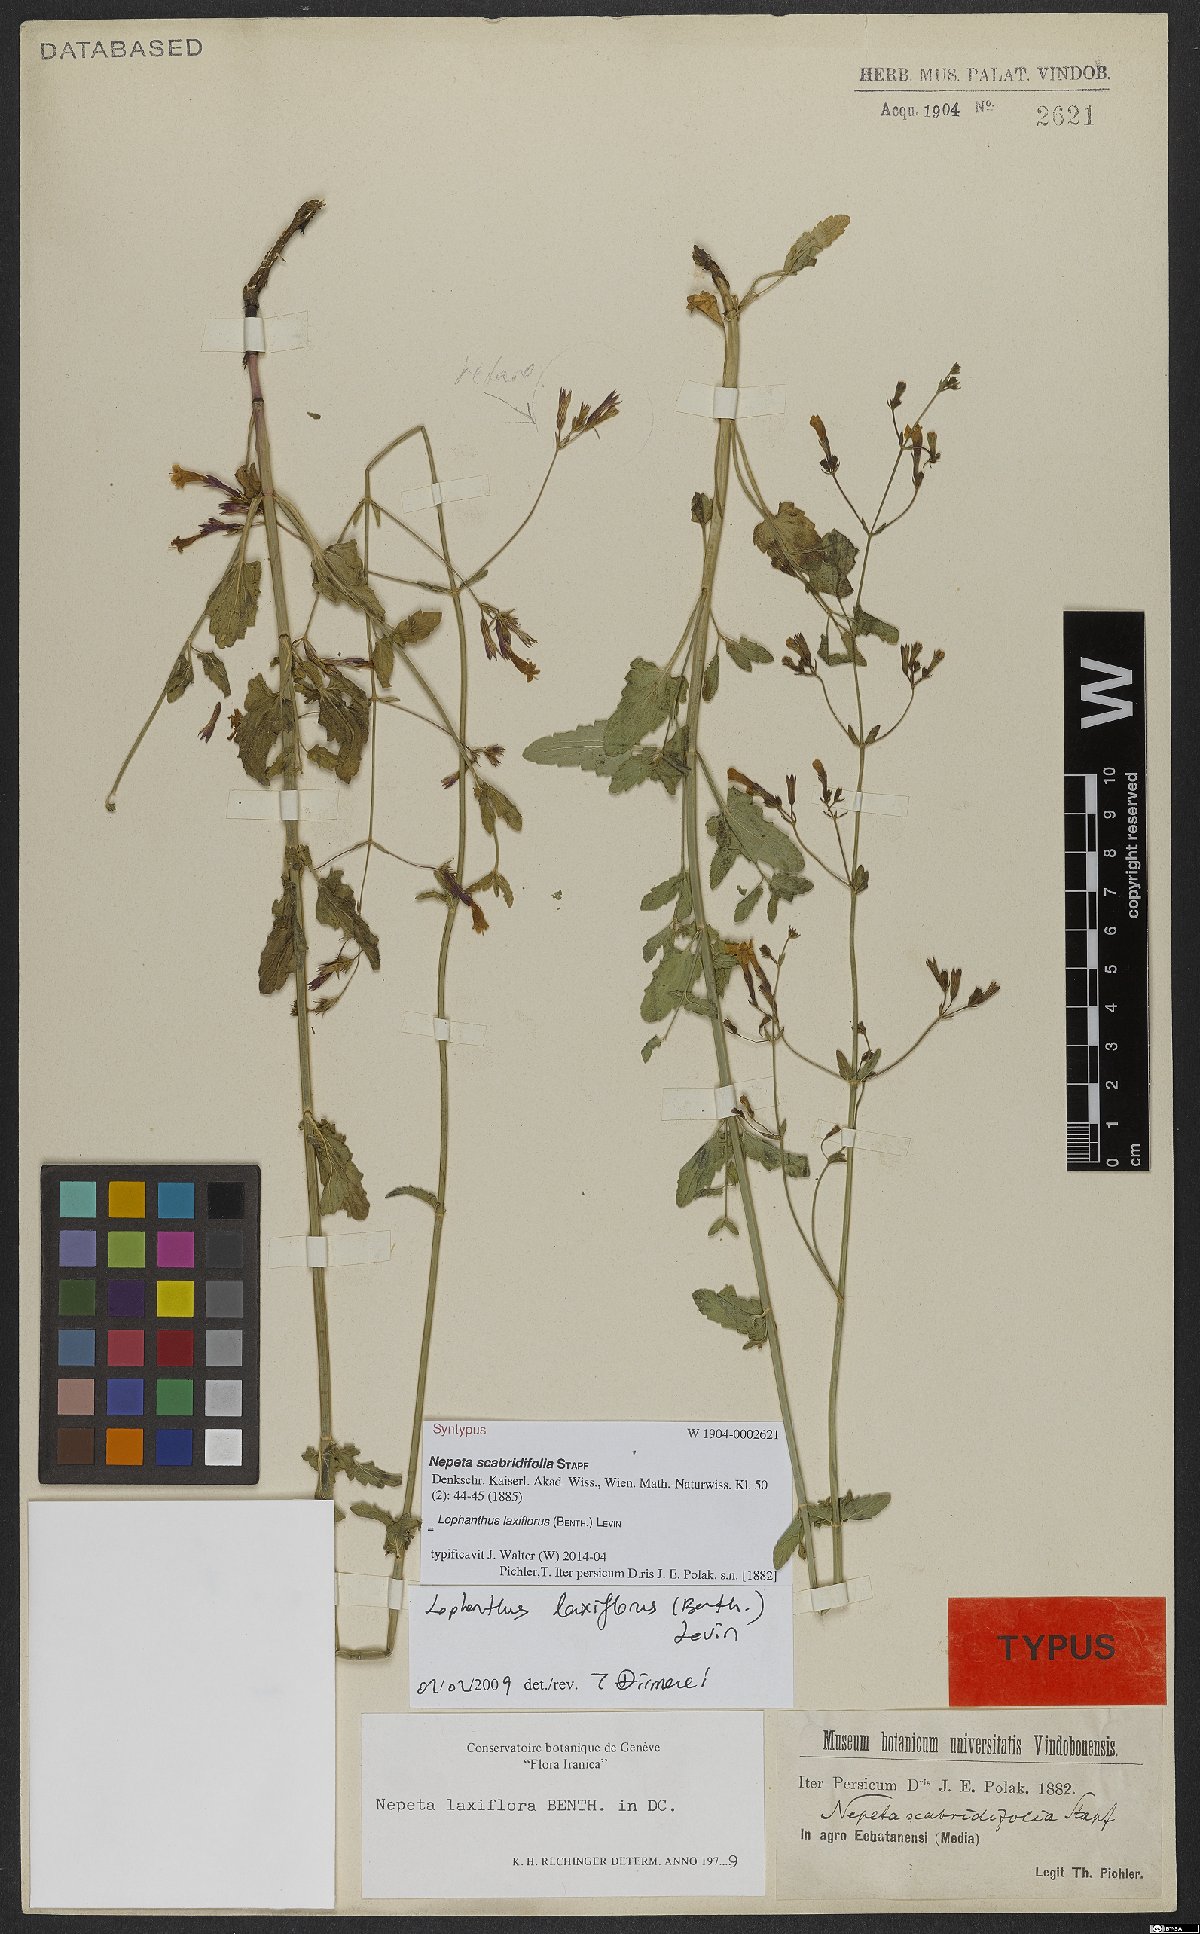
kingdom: Plantae
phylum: Tracheophyta
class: Magnoliopsida
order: Lamiales
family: Lamiaceae
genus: Nepeta
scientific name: Nepeta laxiflora
